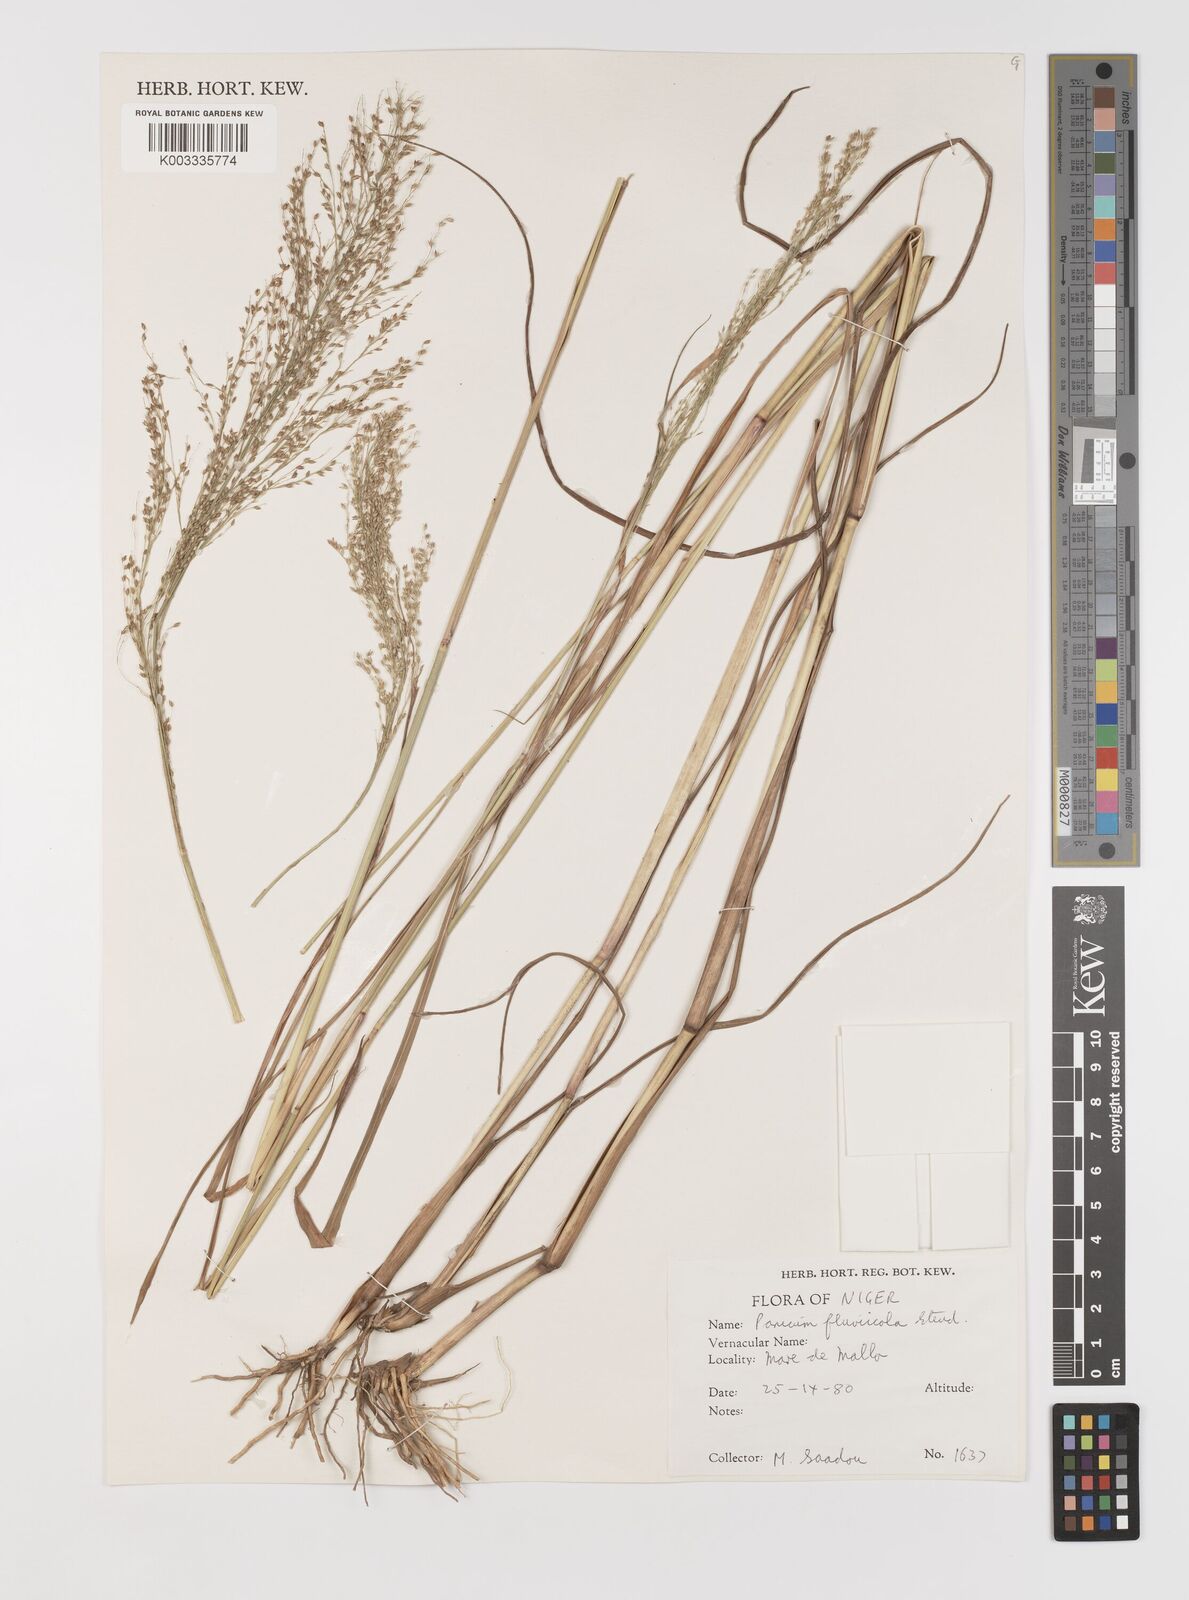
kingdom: Plantae
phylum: Tracheophyta
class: Liliopsida
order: Poales
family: Poaceae
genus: Panicum
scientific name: Panicum fluviicola
